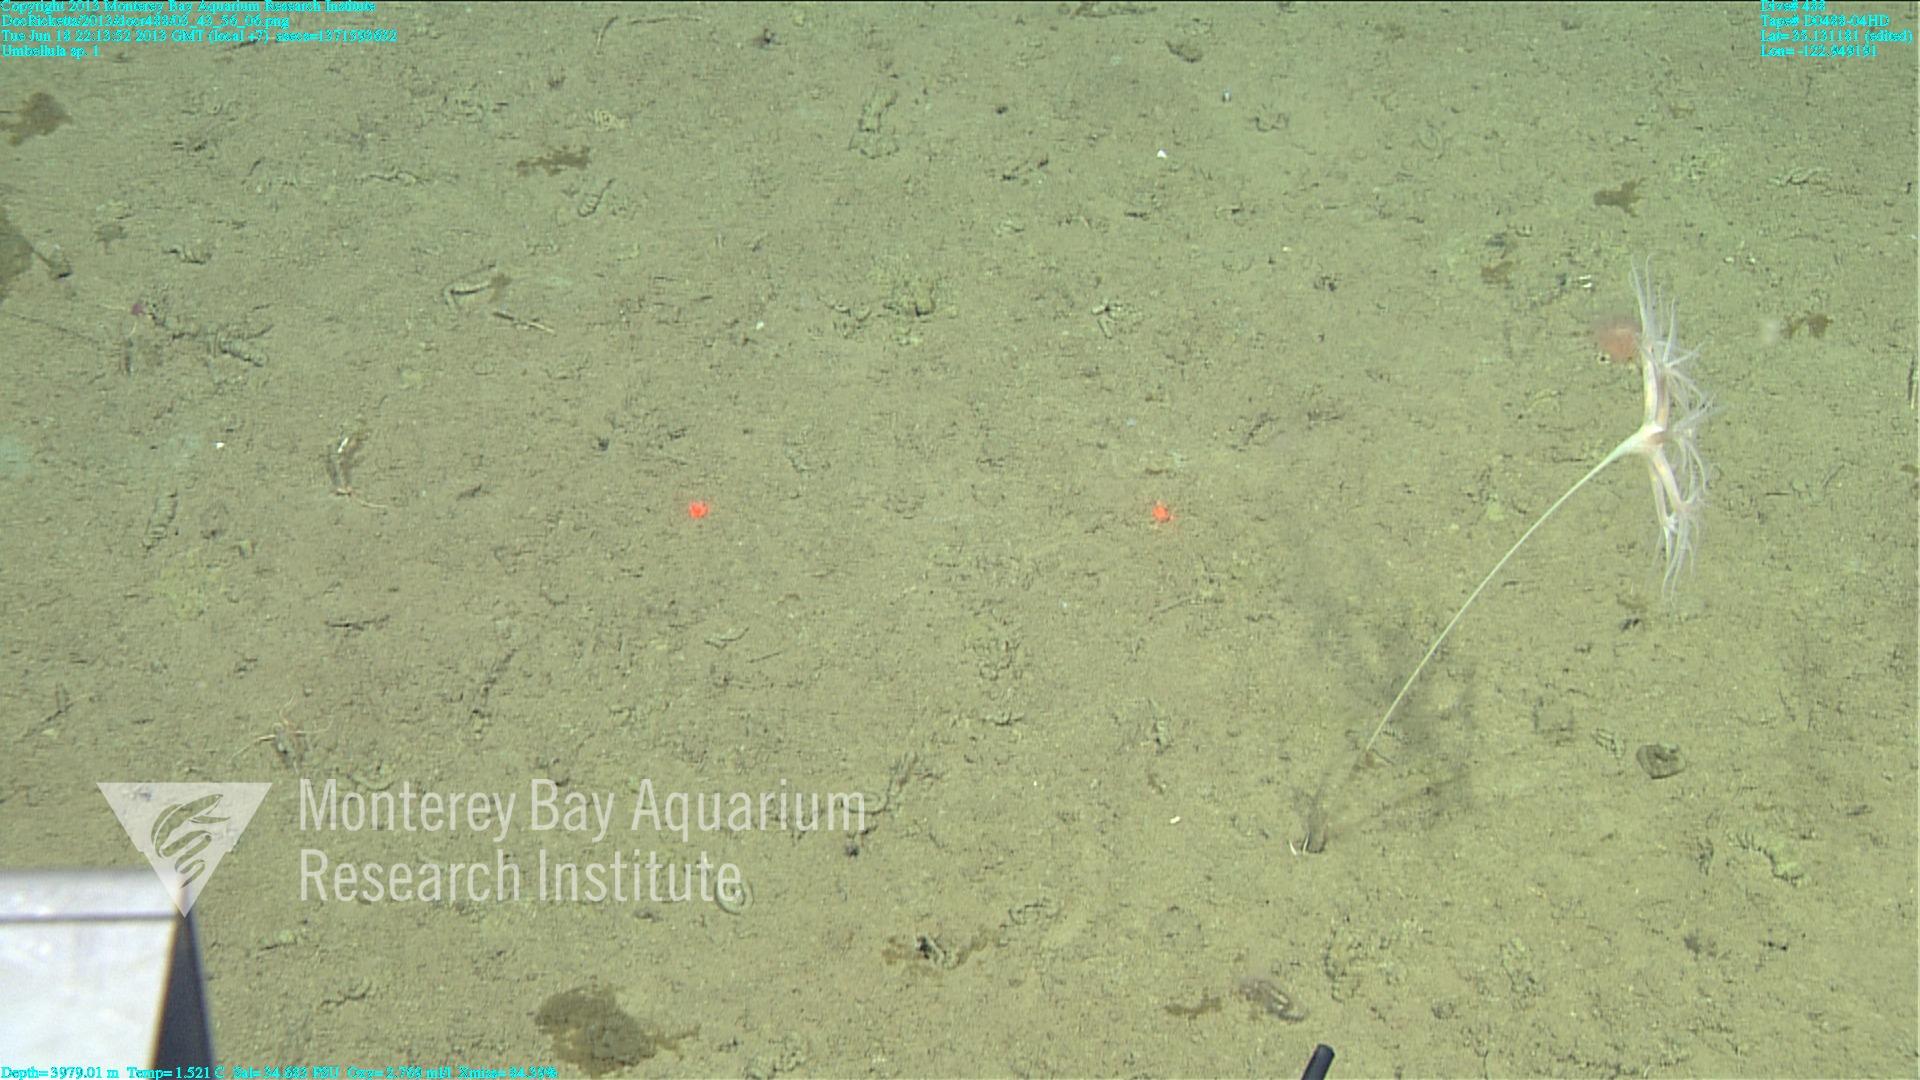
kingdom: Animalia
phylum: Cnidaria
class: Anthozoa
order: Scleralcyonacea
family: Umbellulidae
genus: Umbellula
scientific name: Umbellula
